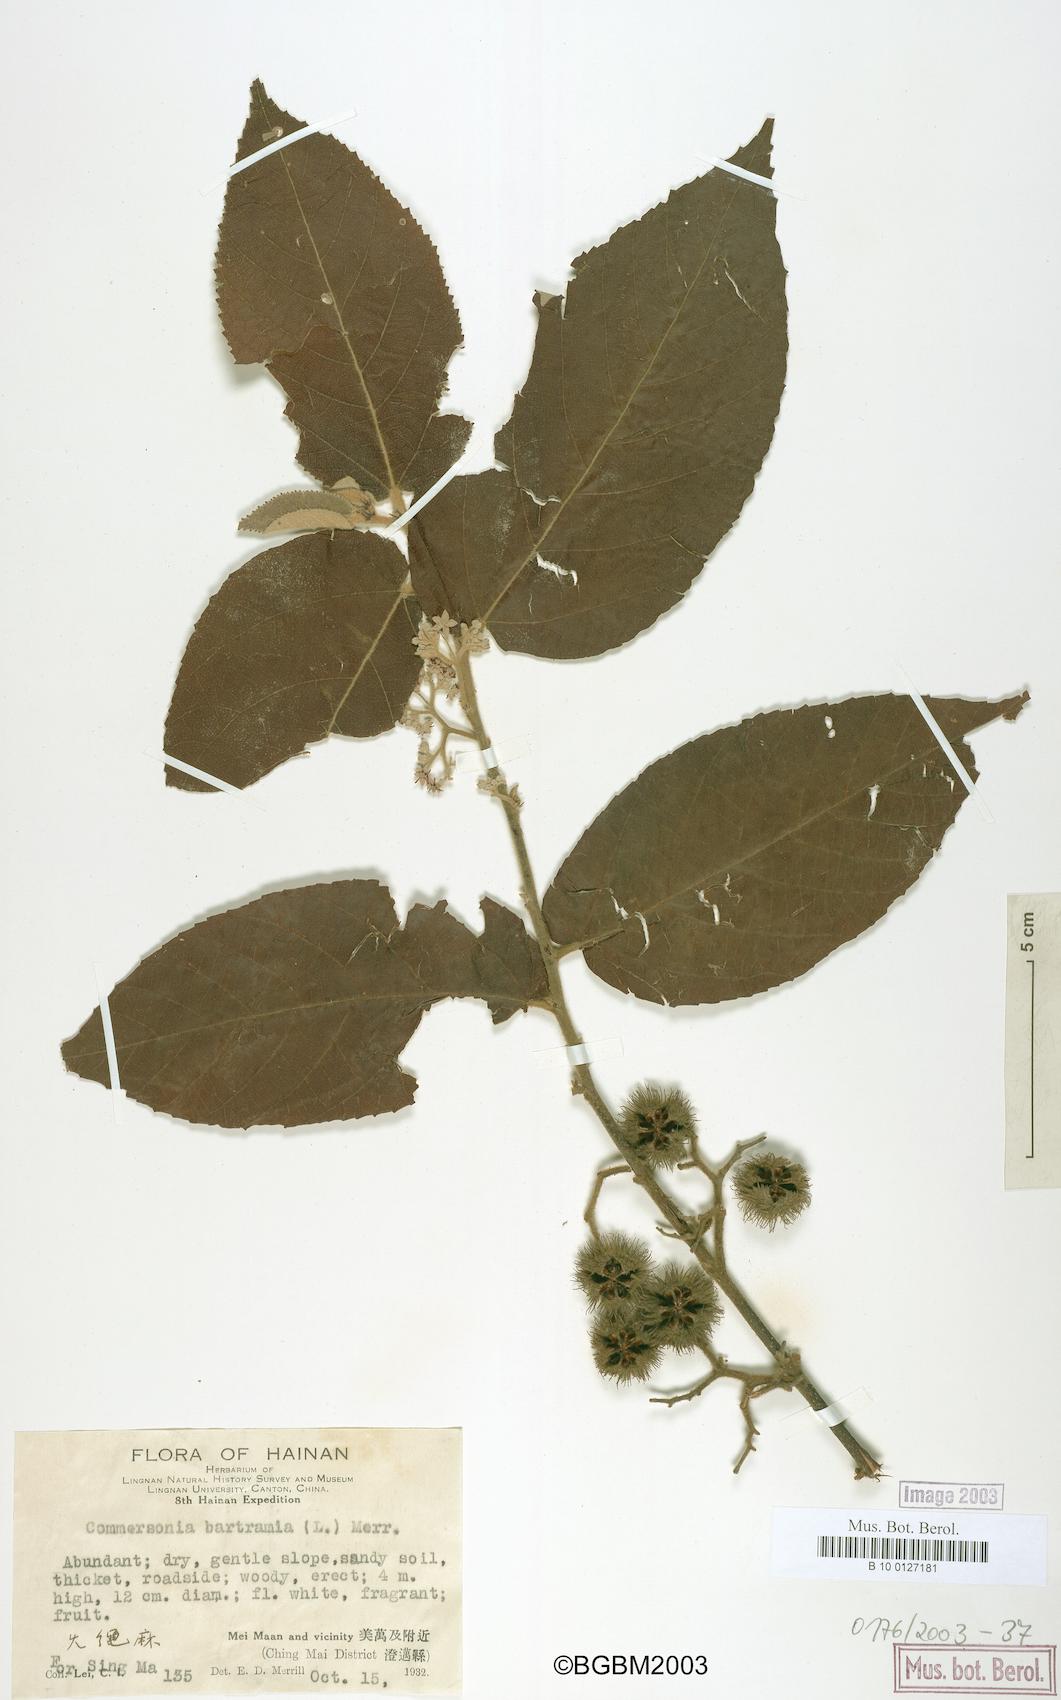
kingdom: Plantae
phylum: Tracheophyta
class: Magnoliopsida
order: Malvales
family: Malvaceae
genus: Commersonia
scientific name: Commersonia bartramia
